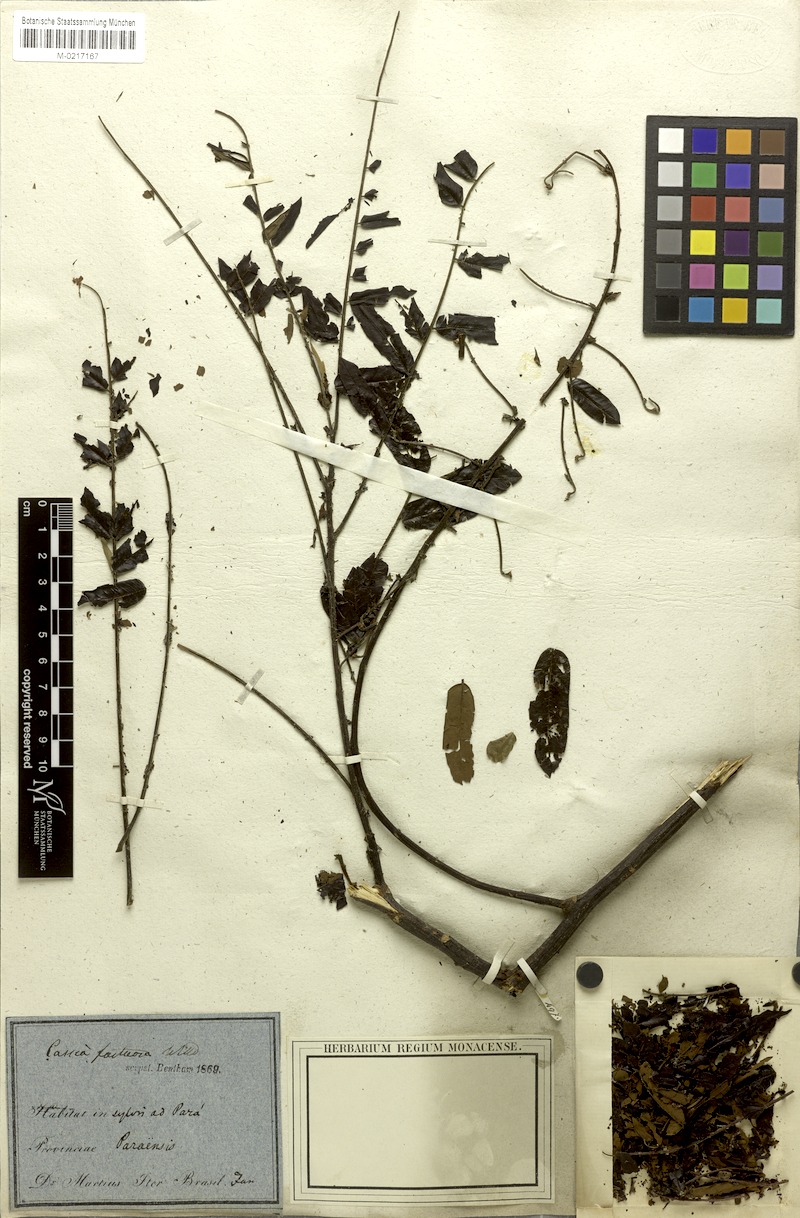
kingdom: Plantae
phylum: Tracheophyta
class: Magnoliopsida
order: Fabales
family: Fabaceae
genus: Cassia
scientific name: Cassia fastuosa
